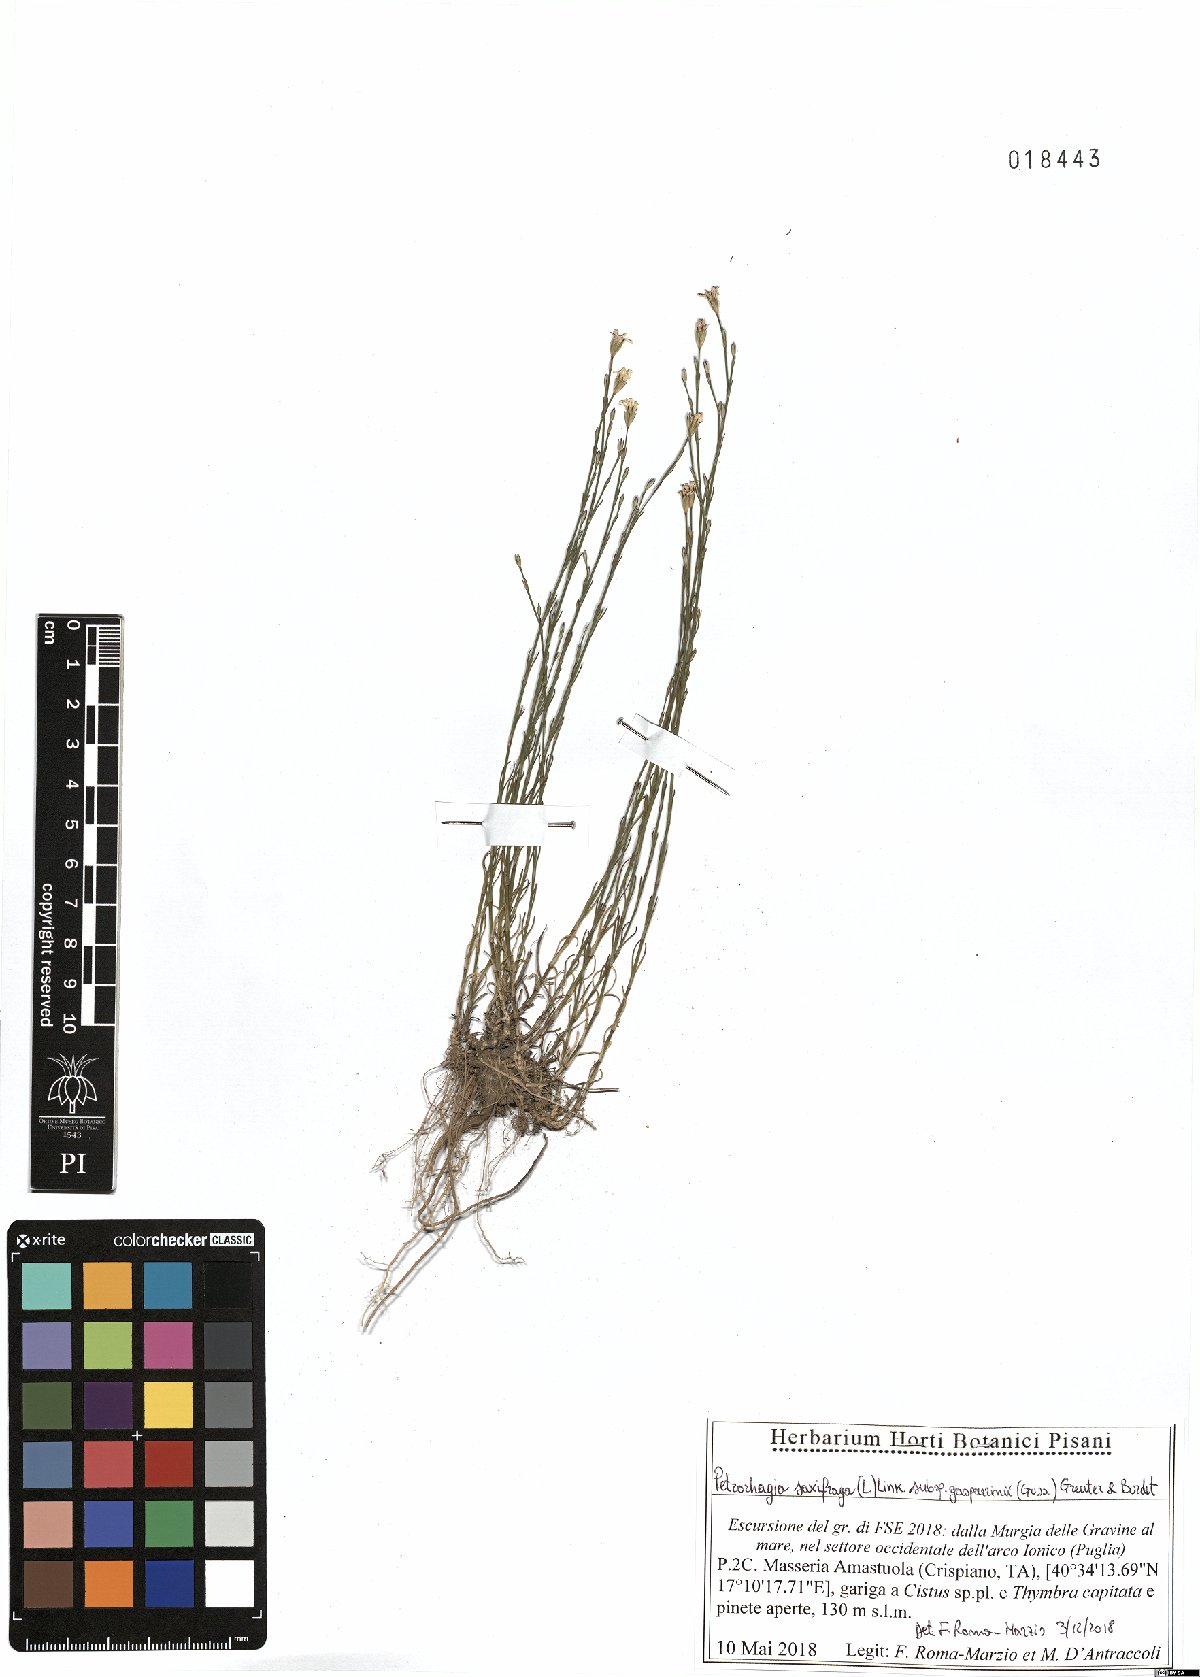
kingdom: Plantae
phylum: Tracheophyta
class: Magnoliopsida
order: Caryophyllales
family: Caryophyllaceae
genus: Petrorhagia
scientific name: Petrorhagia saxifraga
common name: Tunicflower
